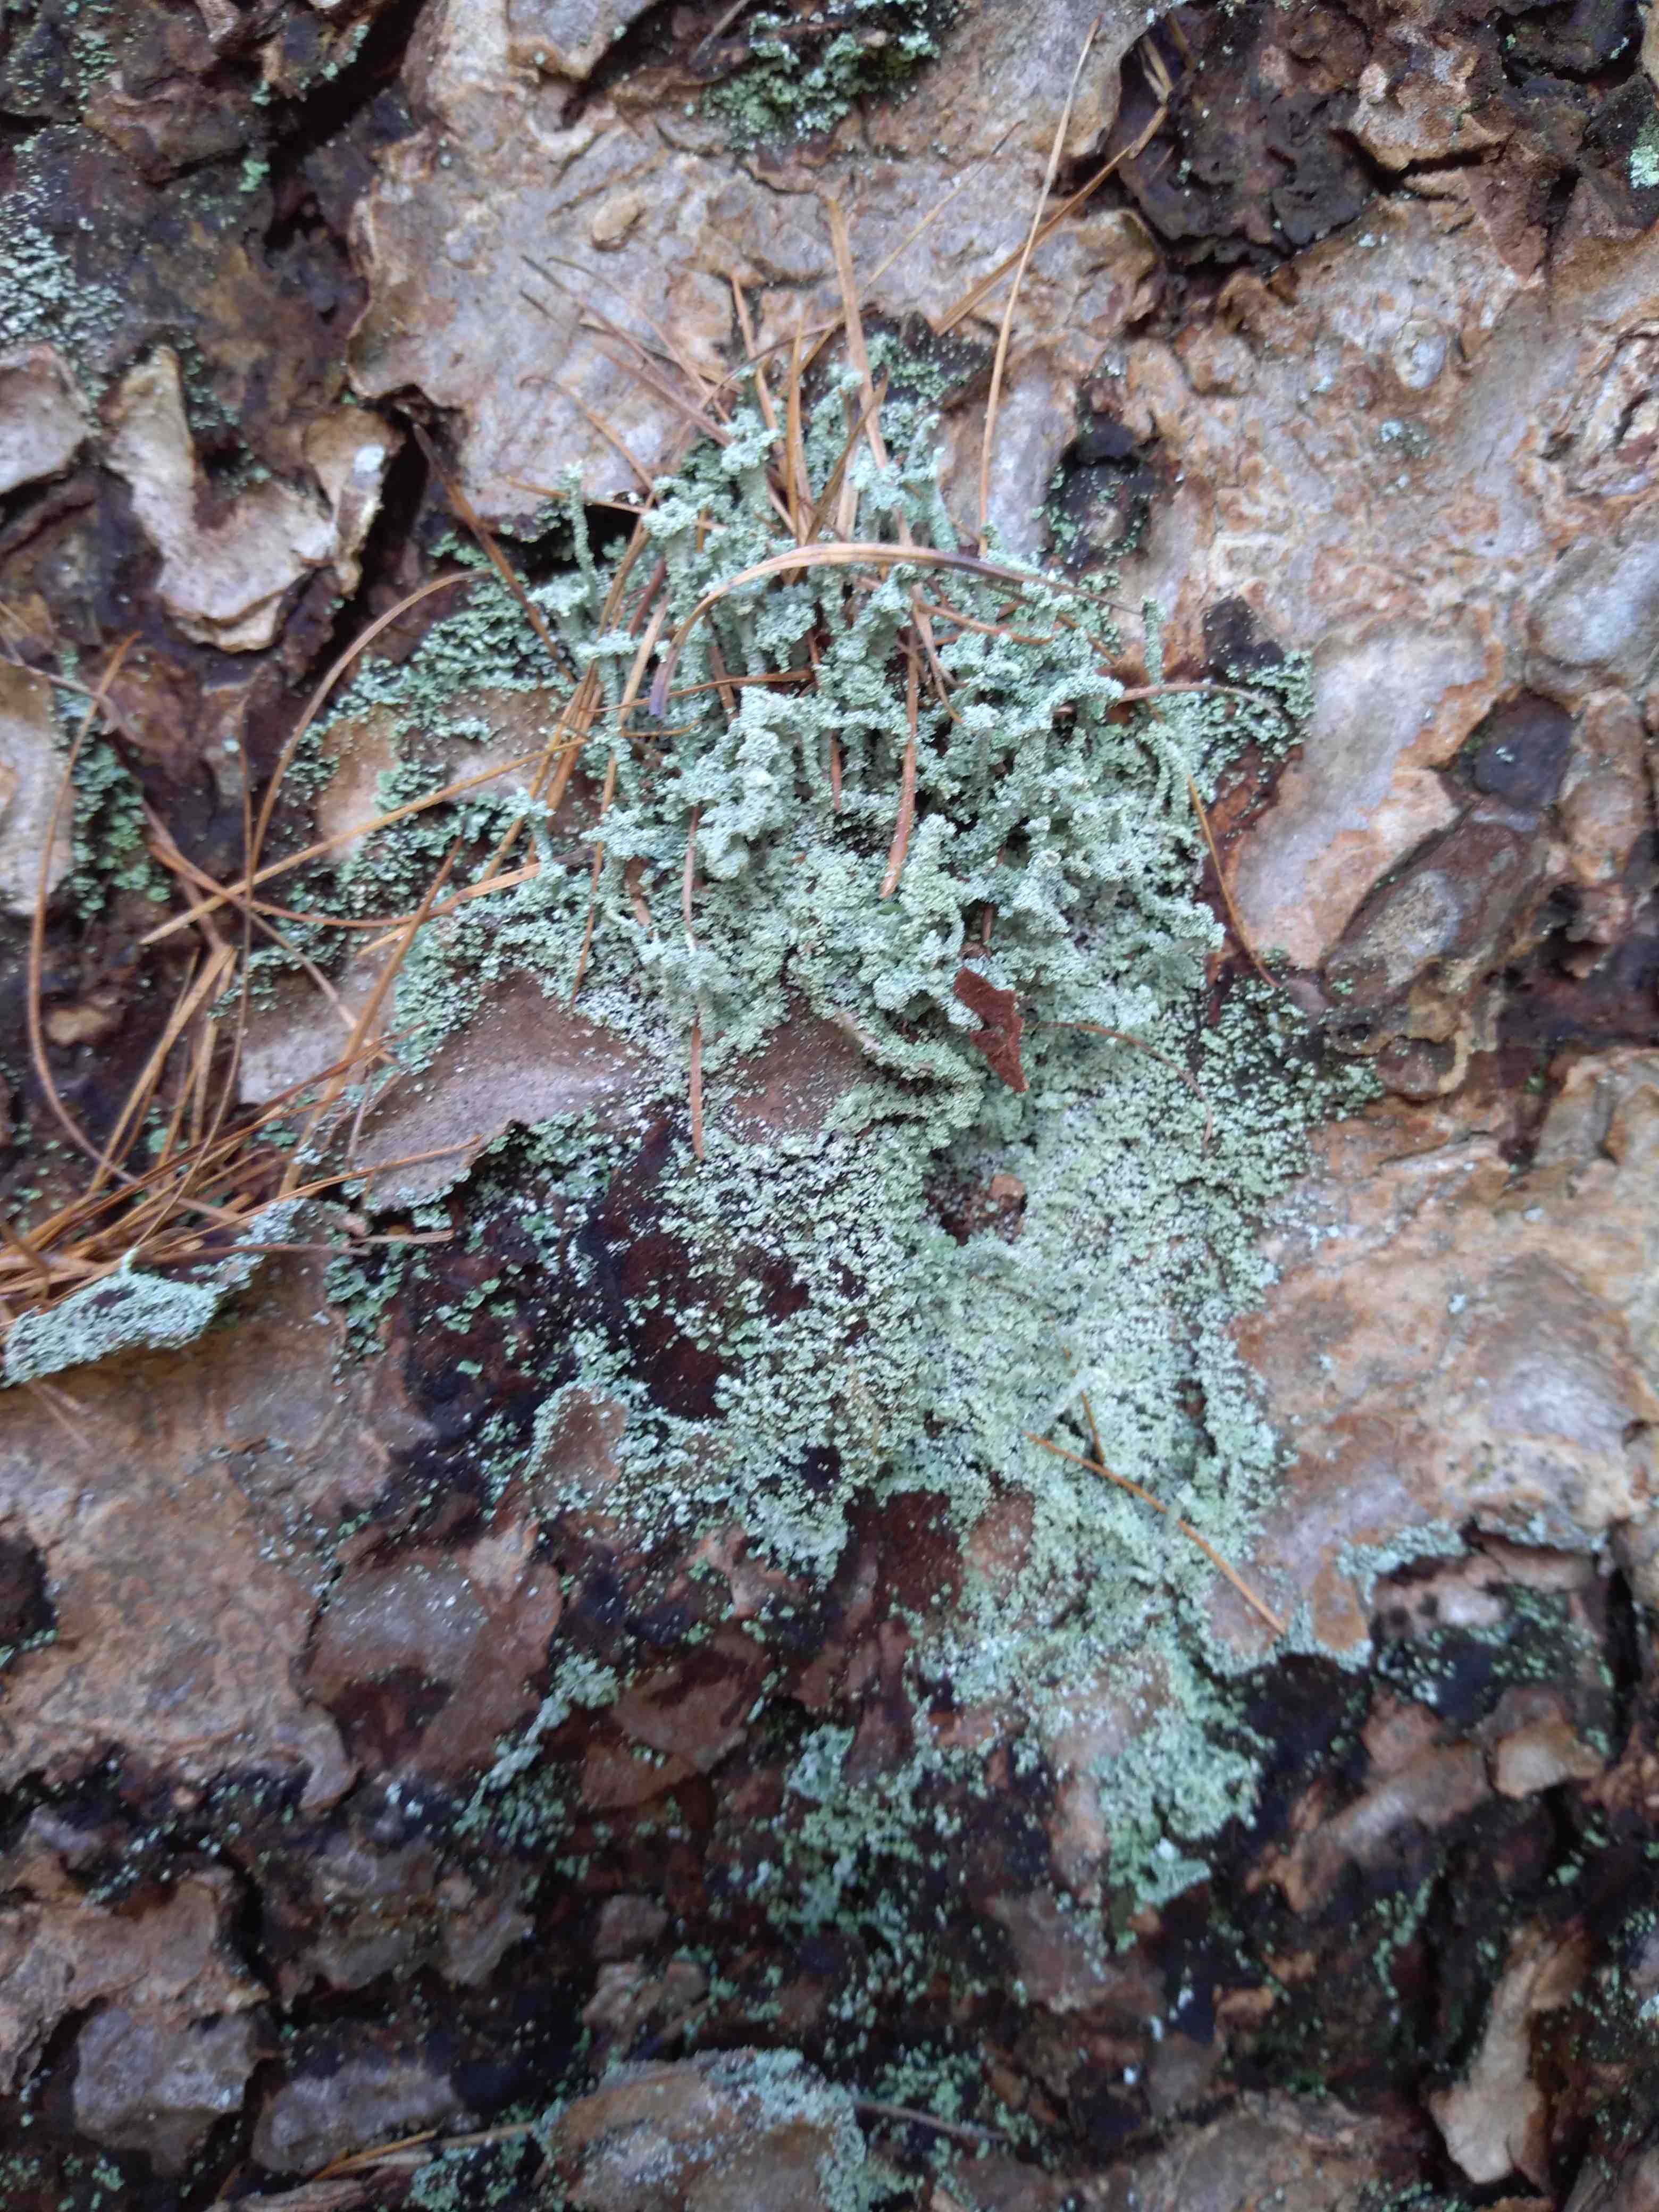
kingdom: Fungi
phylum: Ascomycota
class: Lecanoromycetes
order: Lecanorales
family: Cladoniaceae
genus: Cladonia
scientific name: Cladonia
